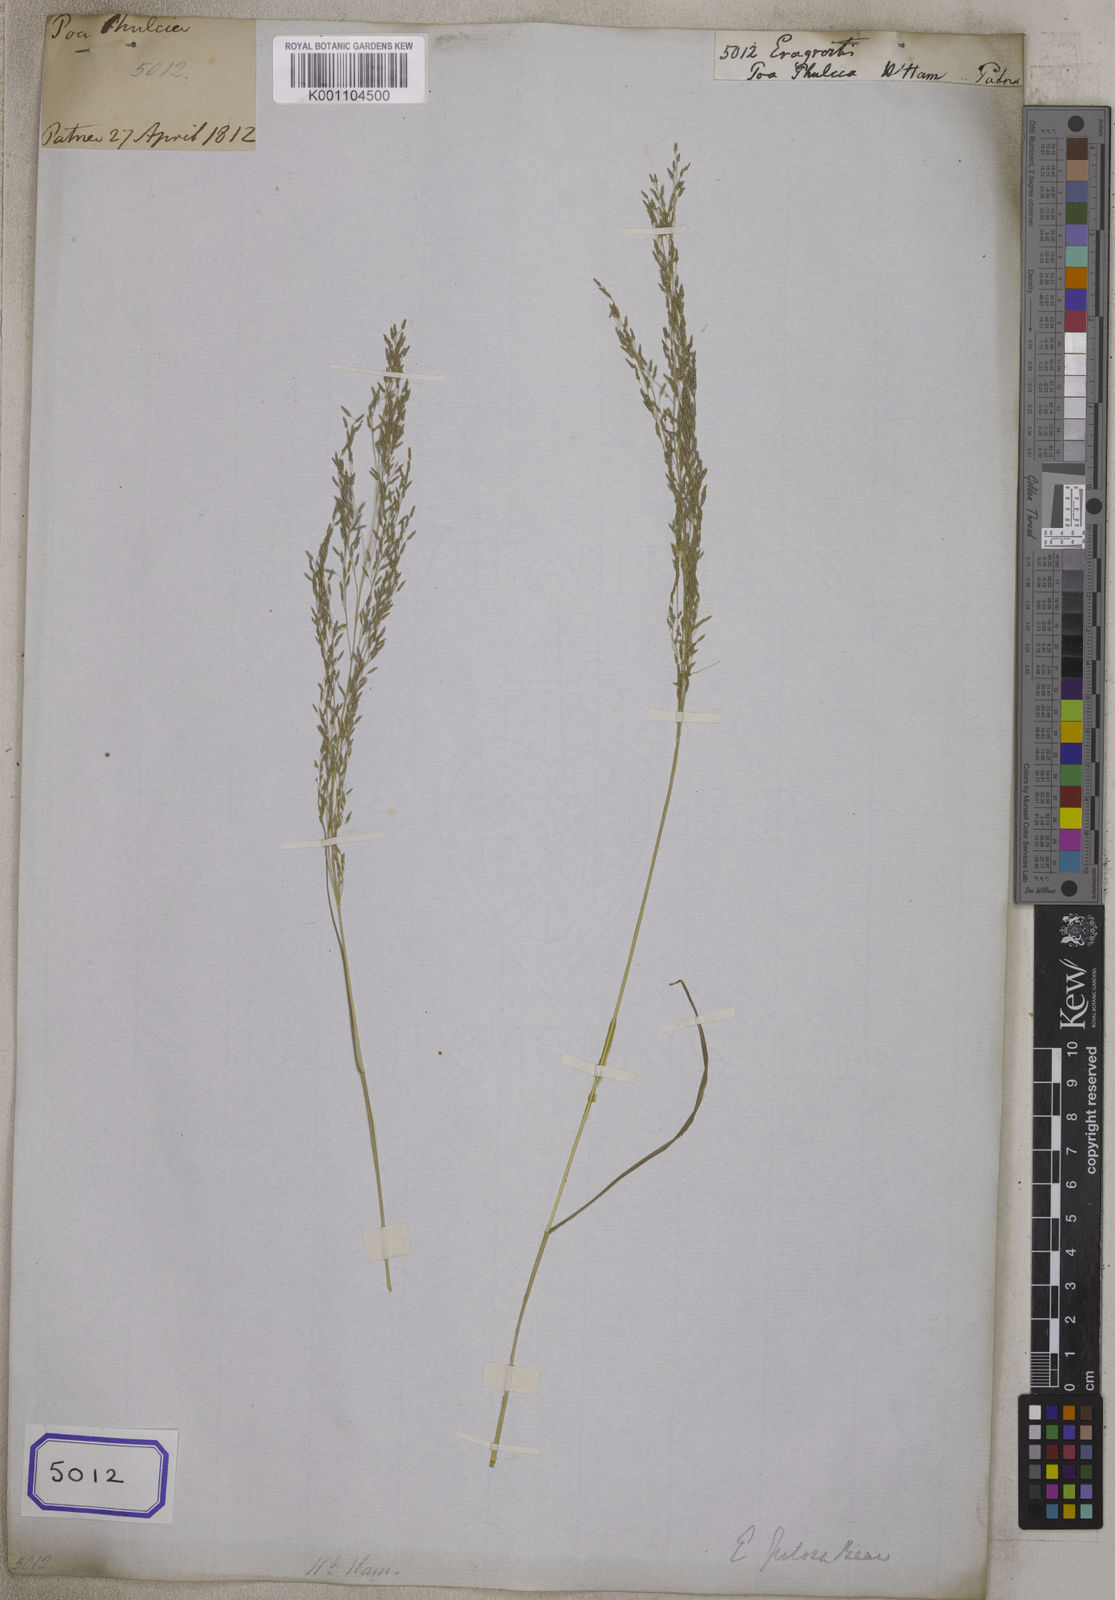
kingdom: Plantae
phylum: Tracheophyta
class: Liliopsida
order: Poales
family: Poaceae
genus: Eragrostis
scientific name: Eragrostis
